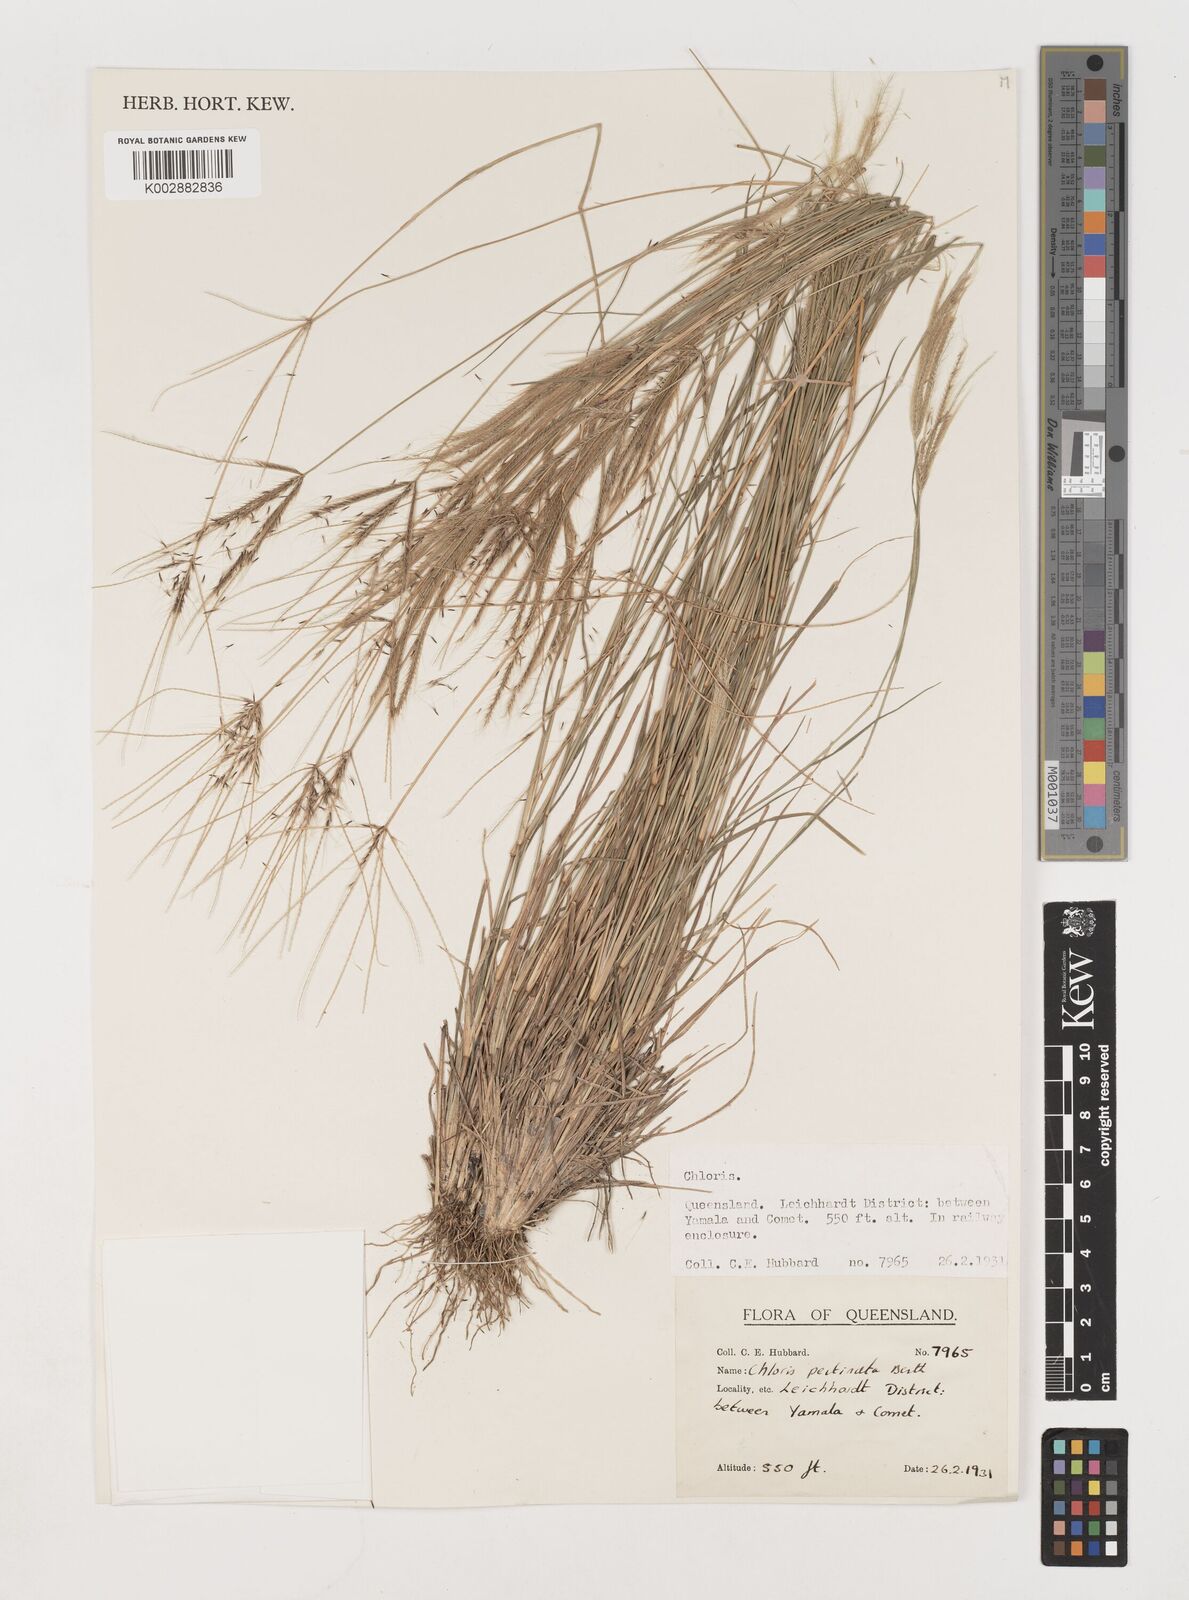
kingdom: Plantae
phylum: Tracheophyta
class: Liliopsida
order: Poales
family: Poaceae
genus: Chloris
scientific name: Chloris pectinata
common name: Comb windmill grass
